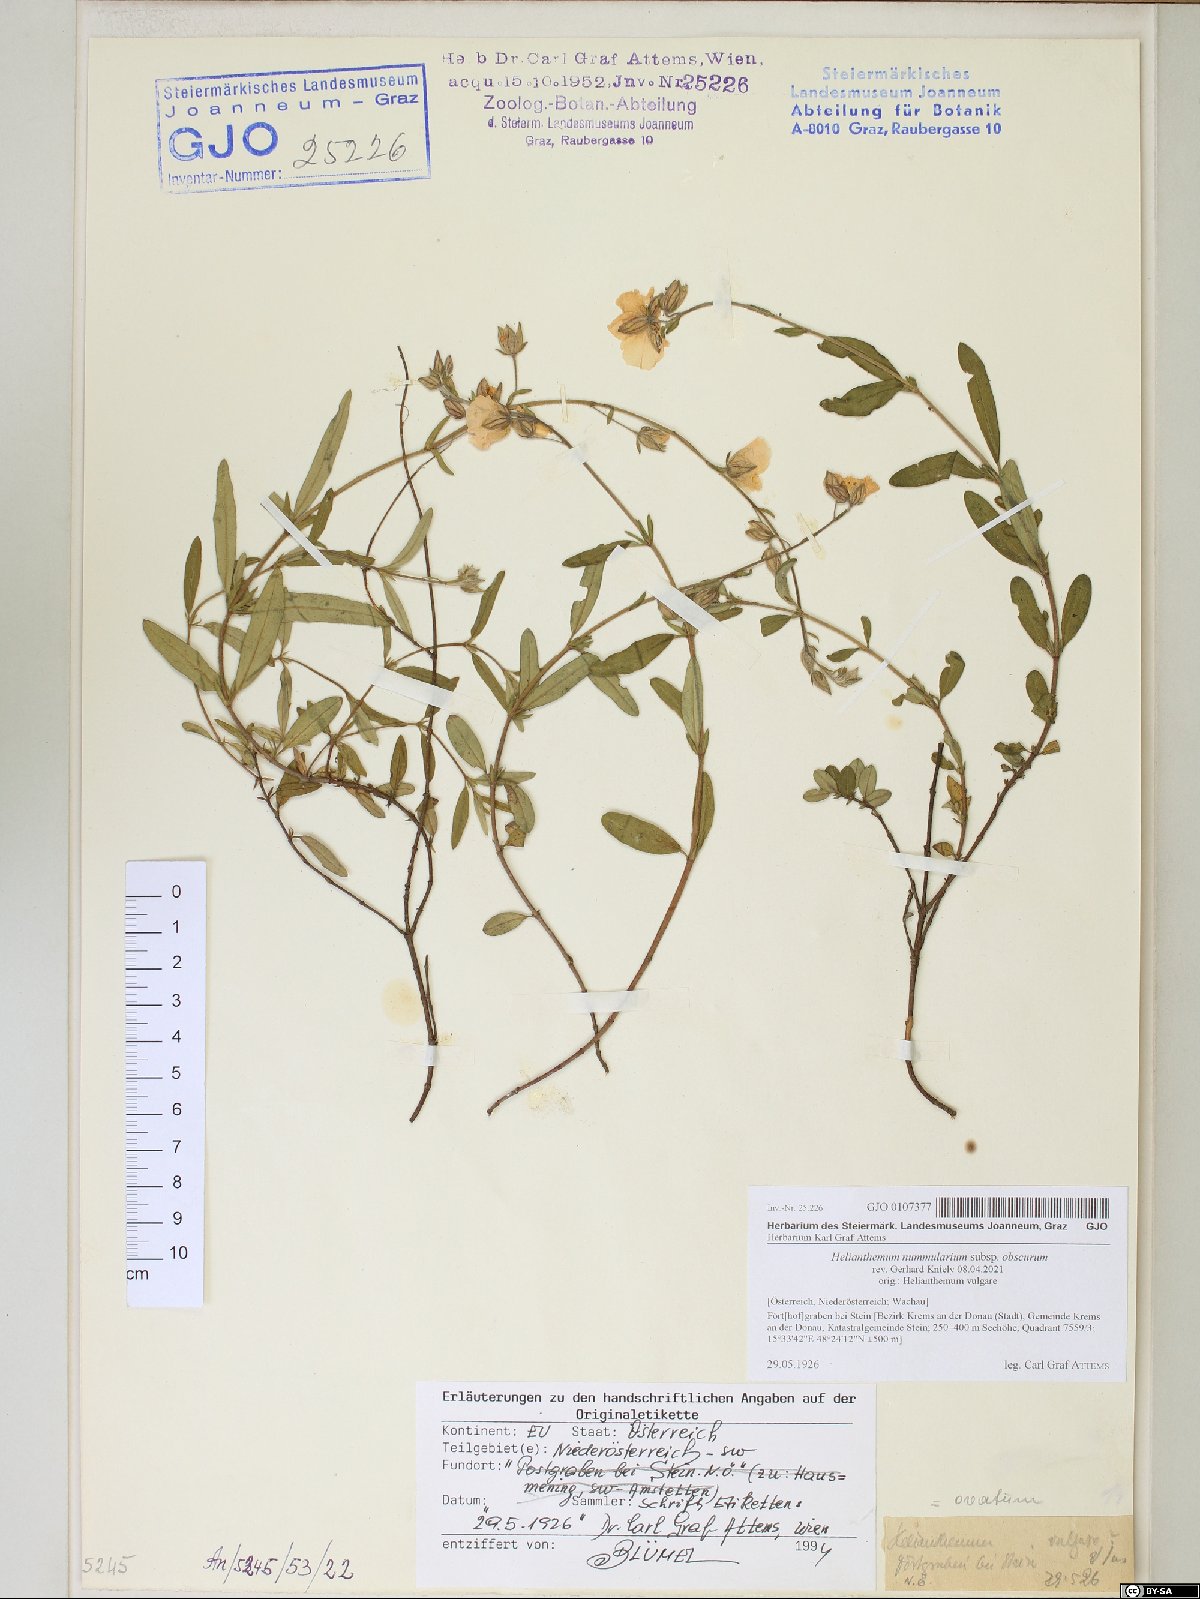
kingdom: Plantae
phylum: Tracheophyta
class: Magnoliopsida
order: Malvales
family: Cistaceae
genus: Helianthemum
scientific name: Helianthemum nummularium
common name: Common rock-rose
